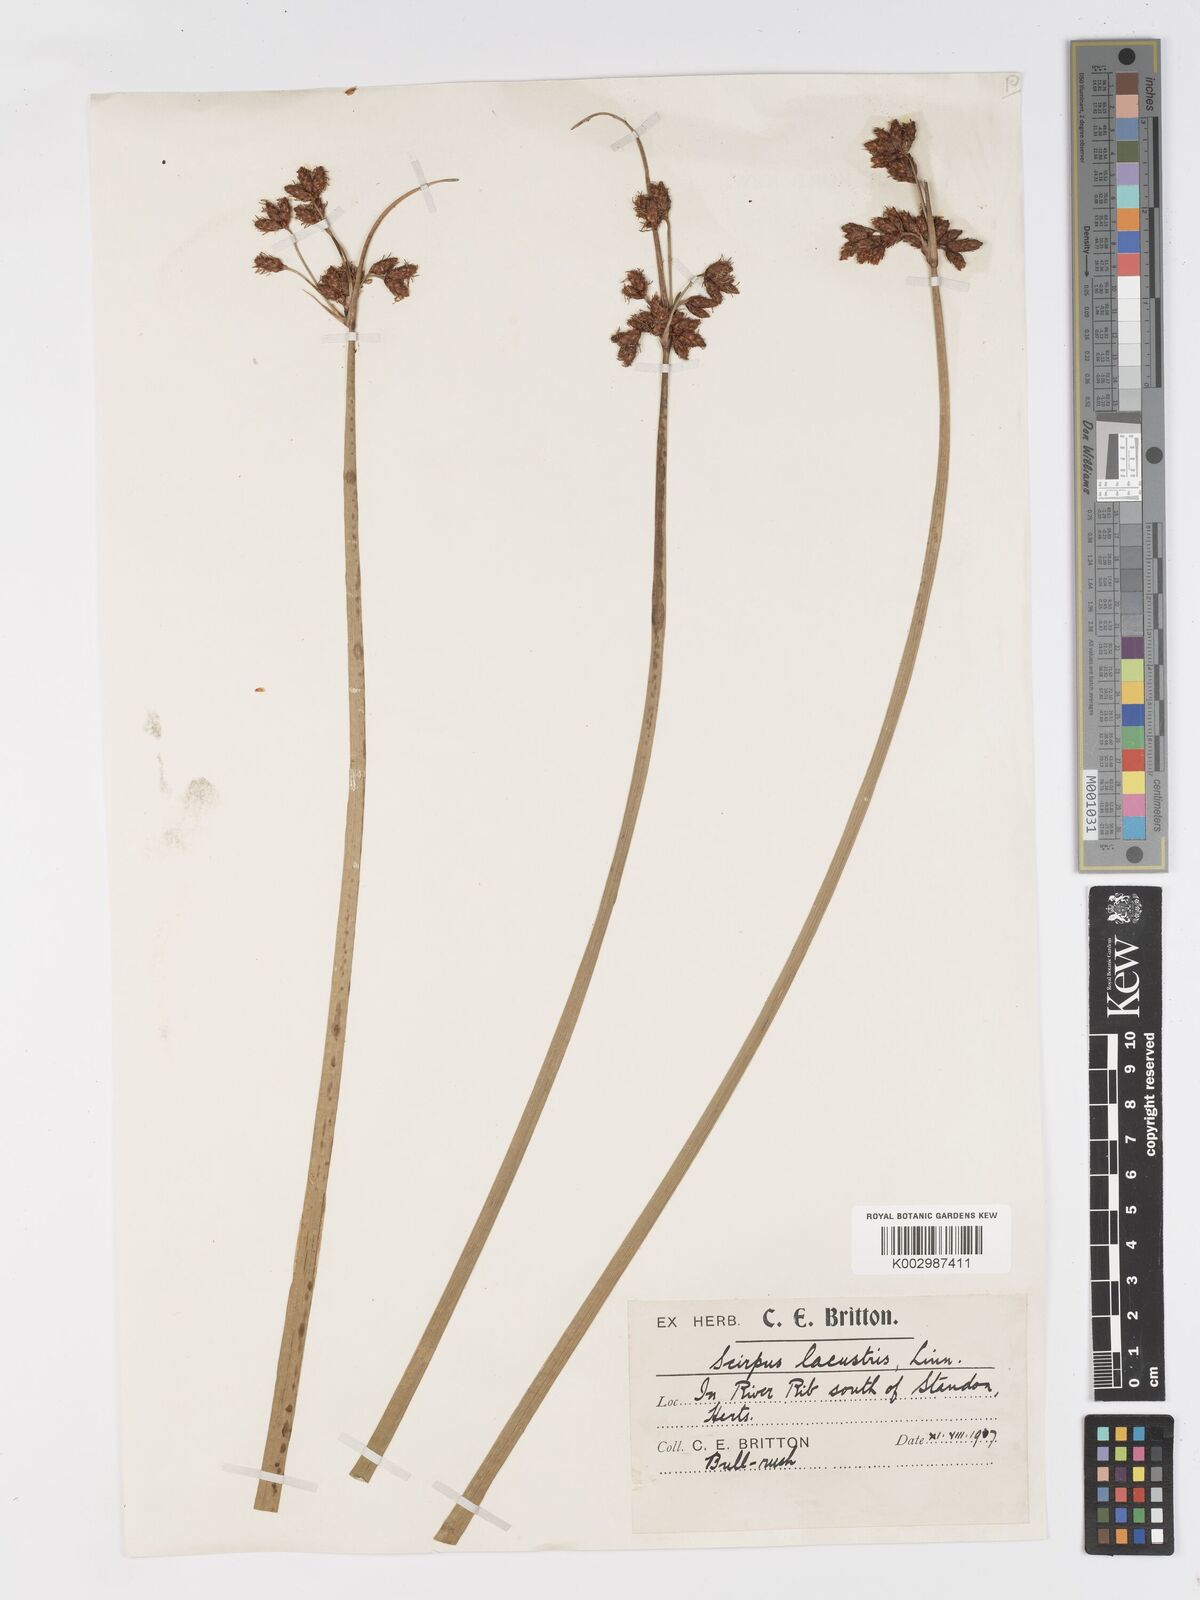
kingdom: Plantae
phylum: Tracheophyta
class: Liliopsida
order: Poales
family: Cyperaceae
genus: Schoenoplectus
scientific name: Schoenoplectus lacustris
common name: Common club-rush
